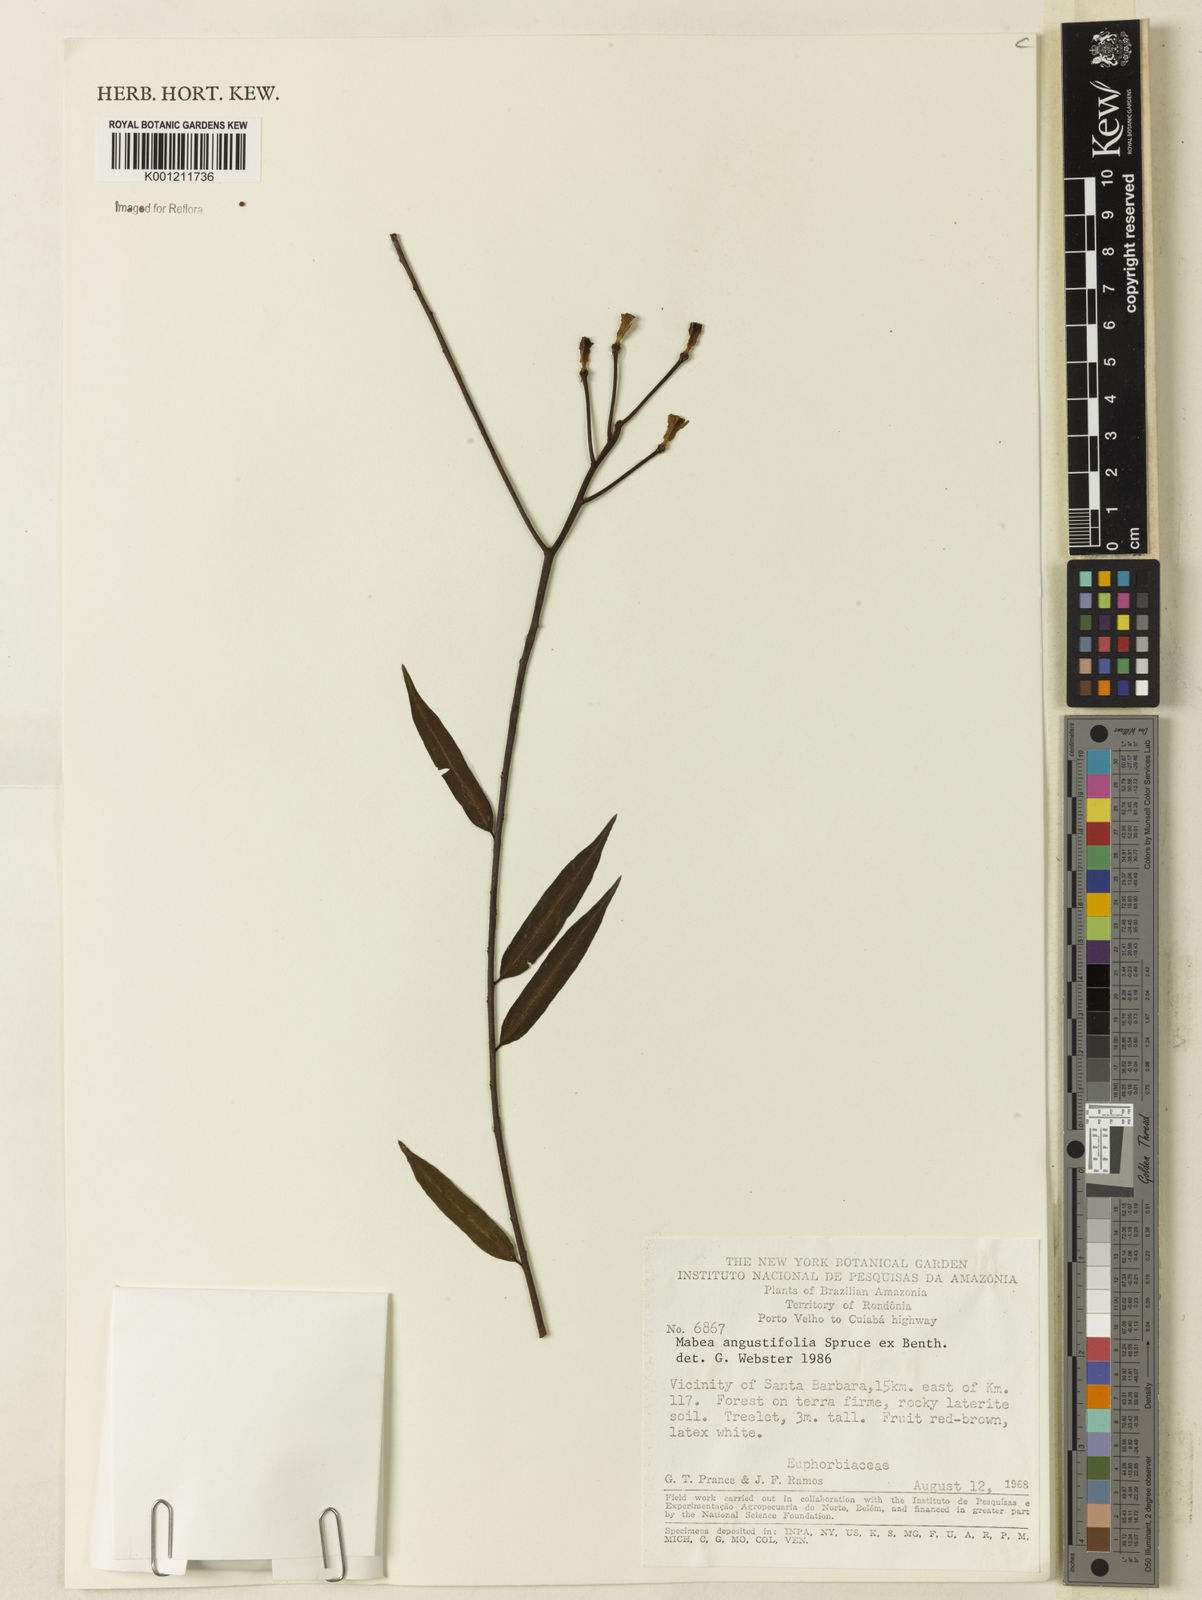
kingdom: Plantae
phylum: Tracheophyta
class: Magnoliopsida
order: Malpighiales
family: Euphorbiaceae
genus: Mabea
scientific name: Mabea angustifolia
